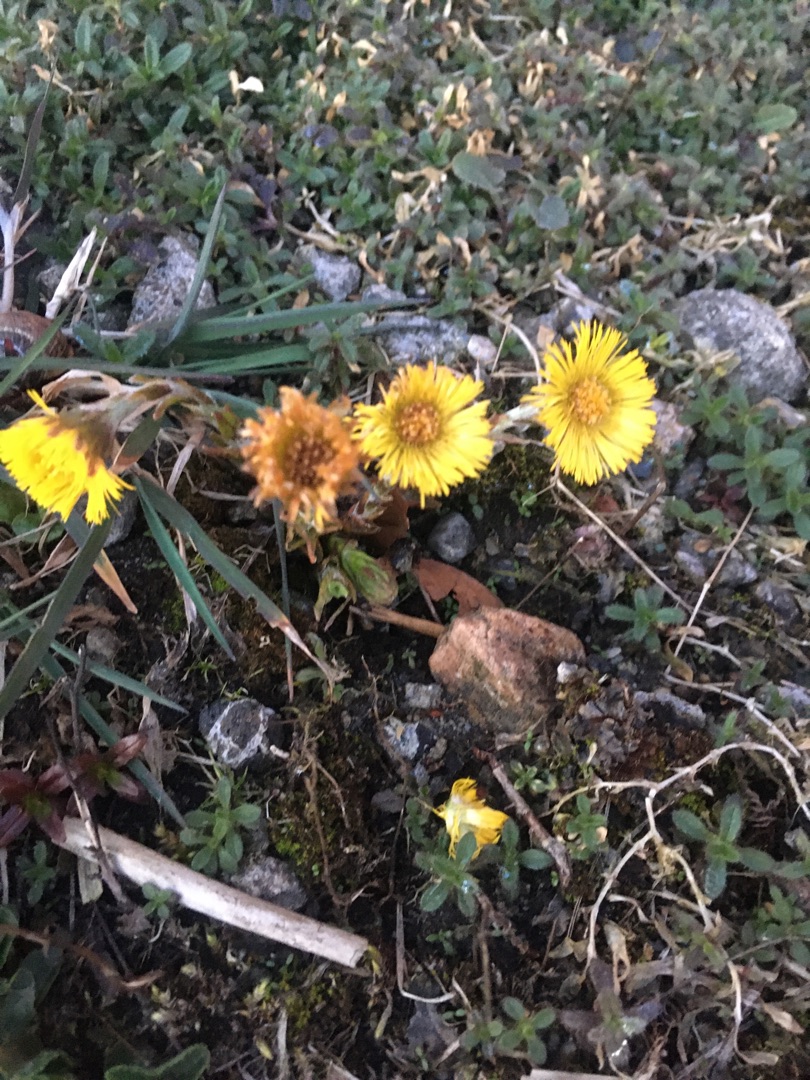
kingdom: Plantae
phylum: Tracheophyta
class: Magnoliopsida
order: Asterales
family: Asteraceae
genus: Tussilago
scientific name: Tussilago farfara
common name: Følfod
